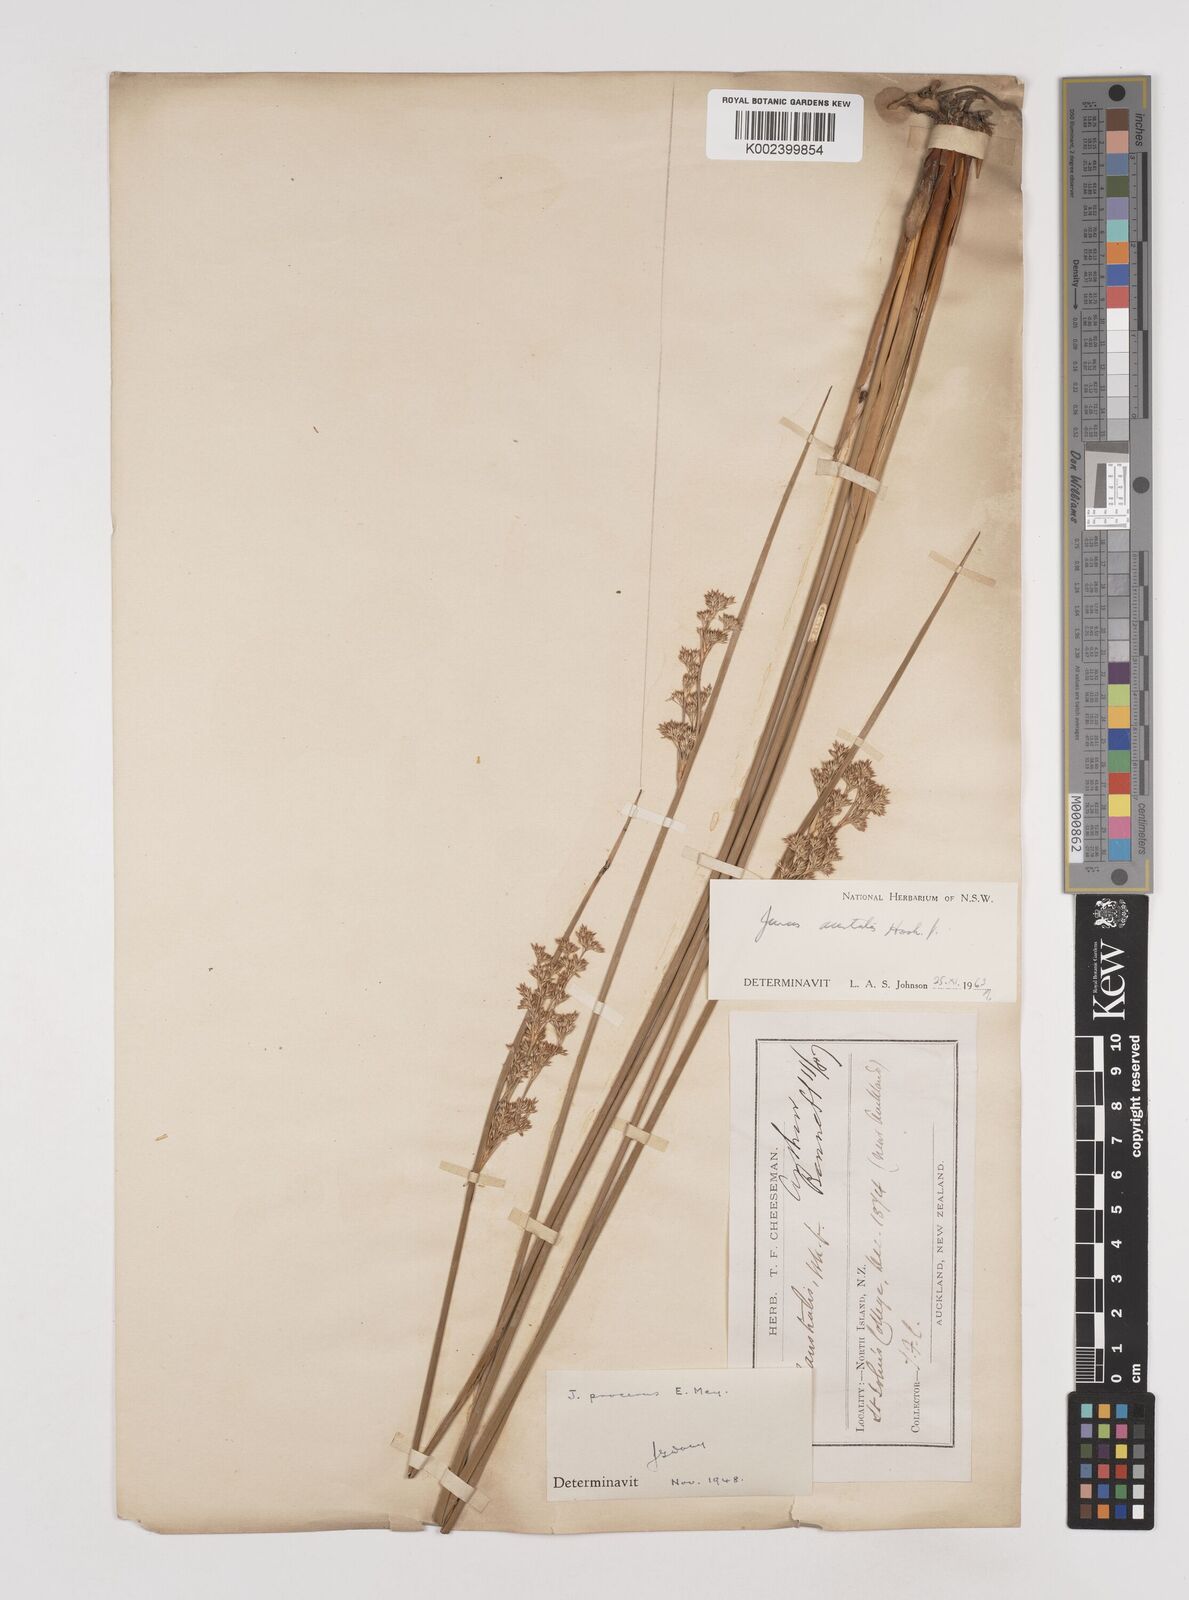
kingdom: Plantae
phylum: Tracheophyta
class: Liliopsida
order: Poales
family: Juncaceae
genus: Juncus
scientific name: Juncus australis
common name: Austral rush
